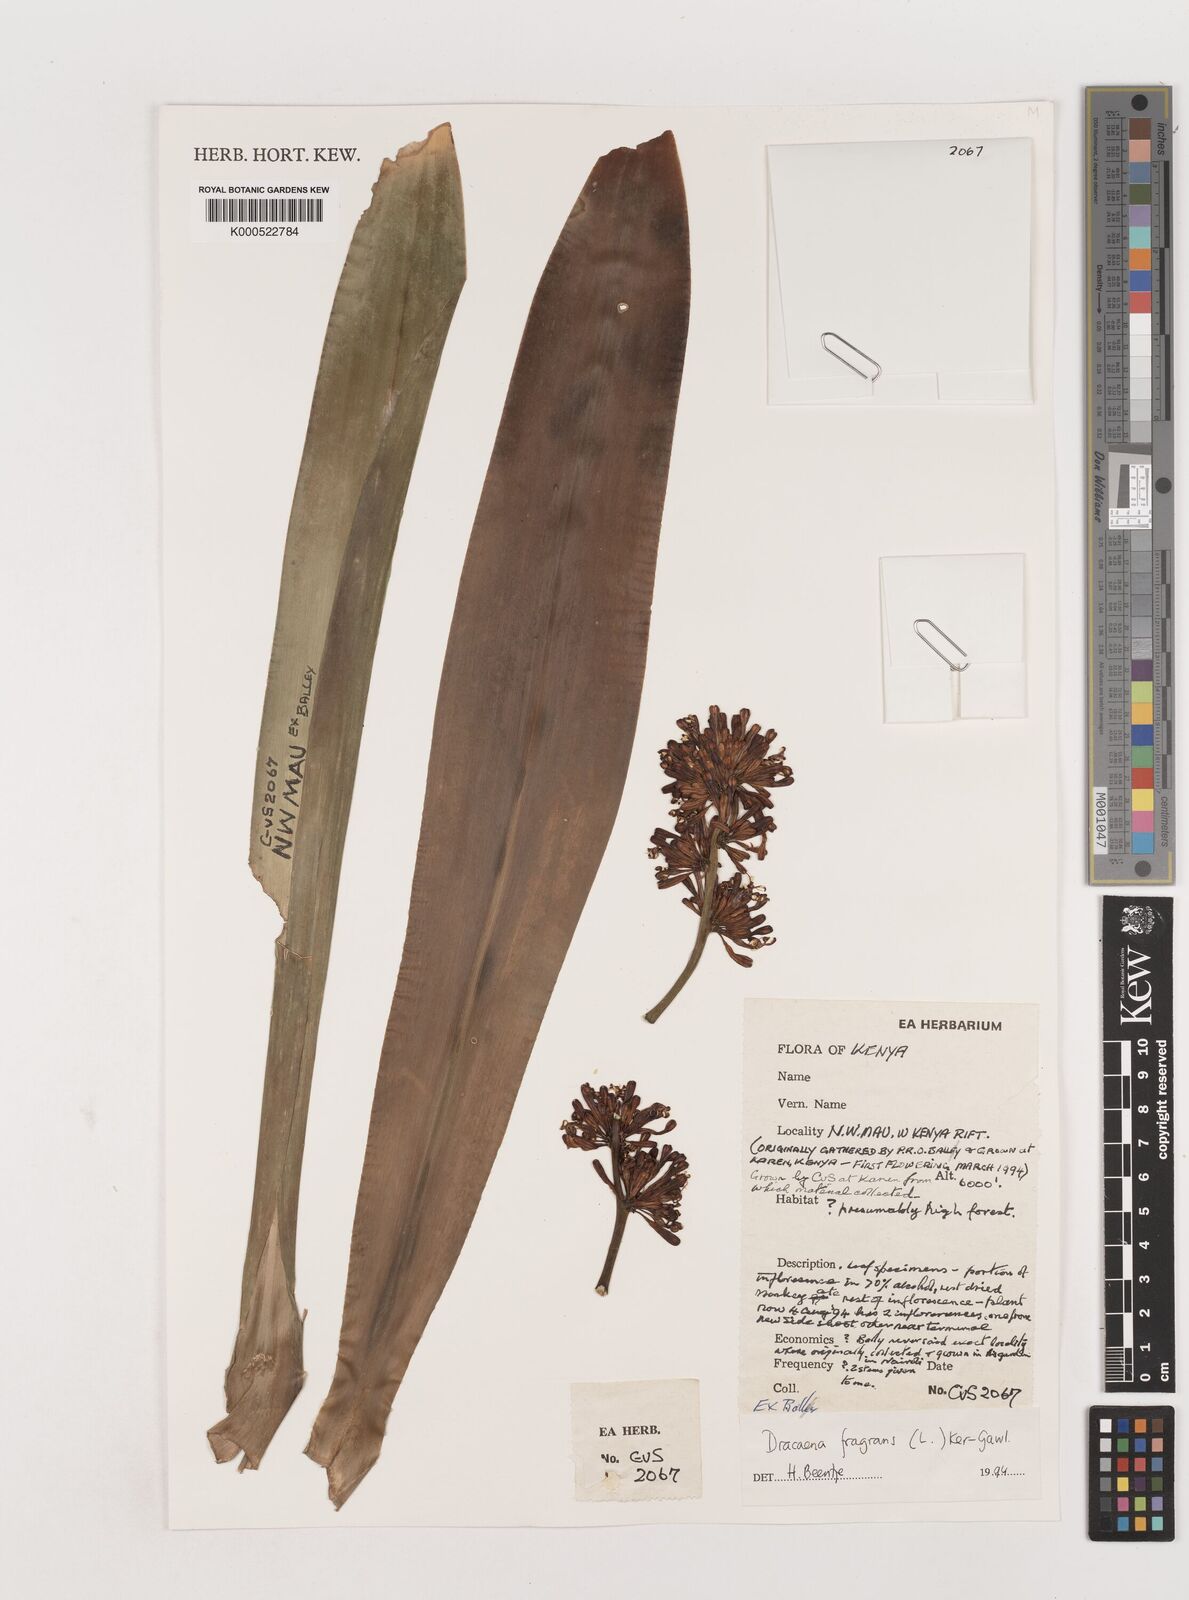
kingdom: Plantae
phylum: Tracheophyta
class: Liliopsida
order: Asparagales
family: Asparagaceae
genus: Dracaena
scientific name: Dracaena fragrans
